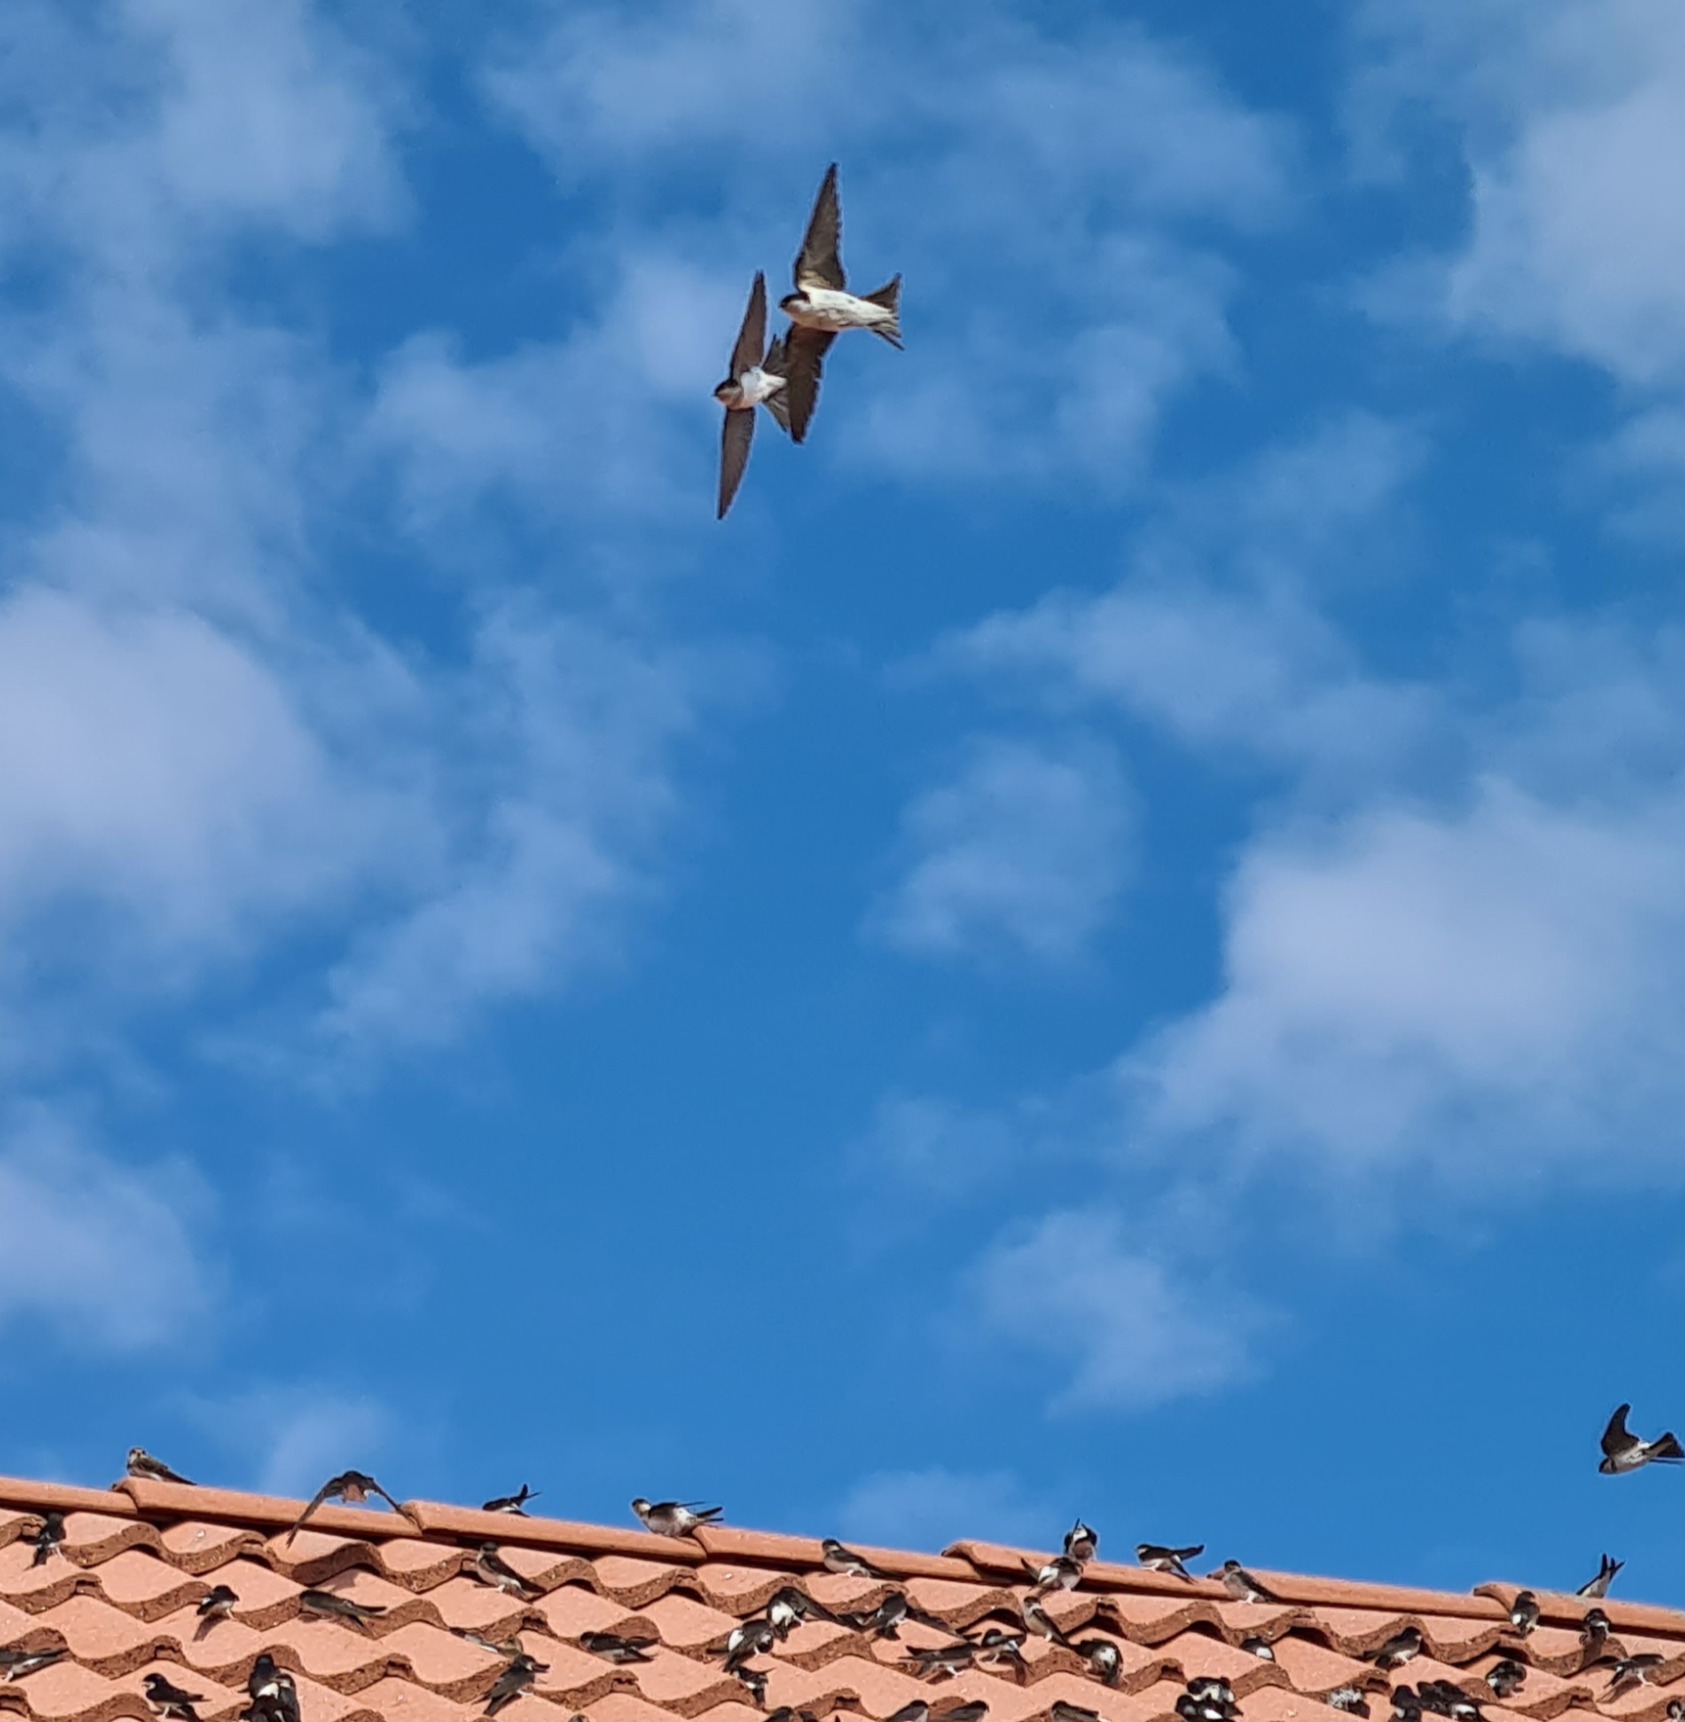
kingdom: Animalia
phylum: Chordata
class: Aves
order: Passeriformes
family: Hirundinidae
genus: Delichon
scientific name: Delichon urbicum
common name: Bysvale
